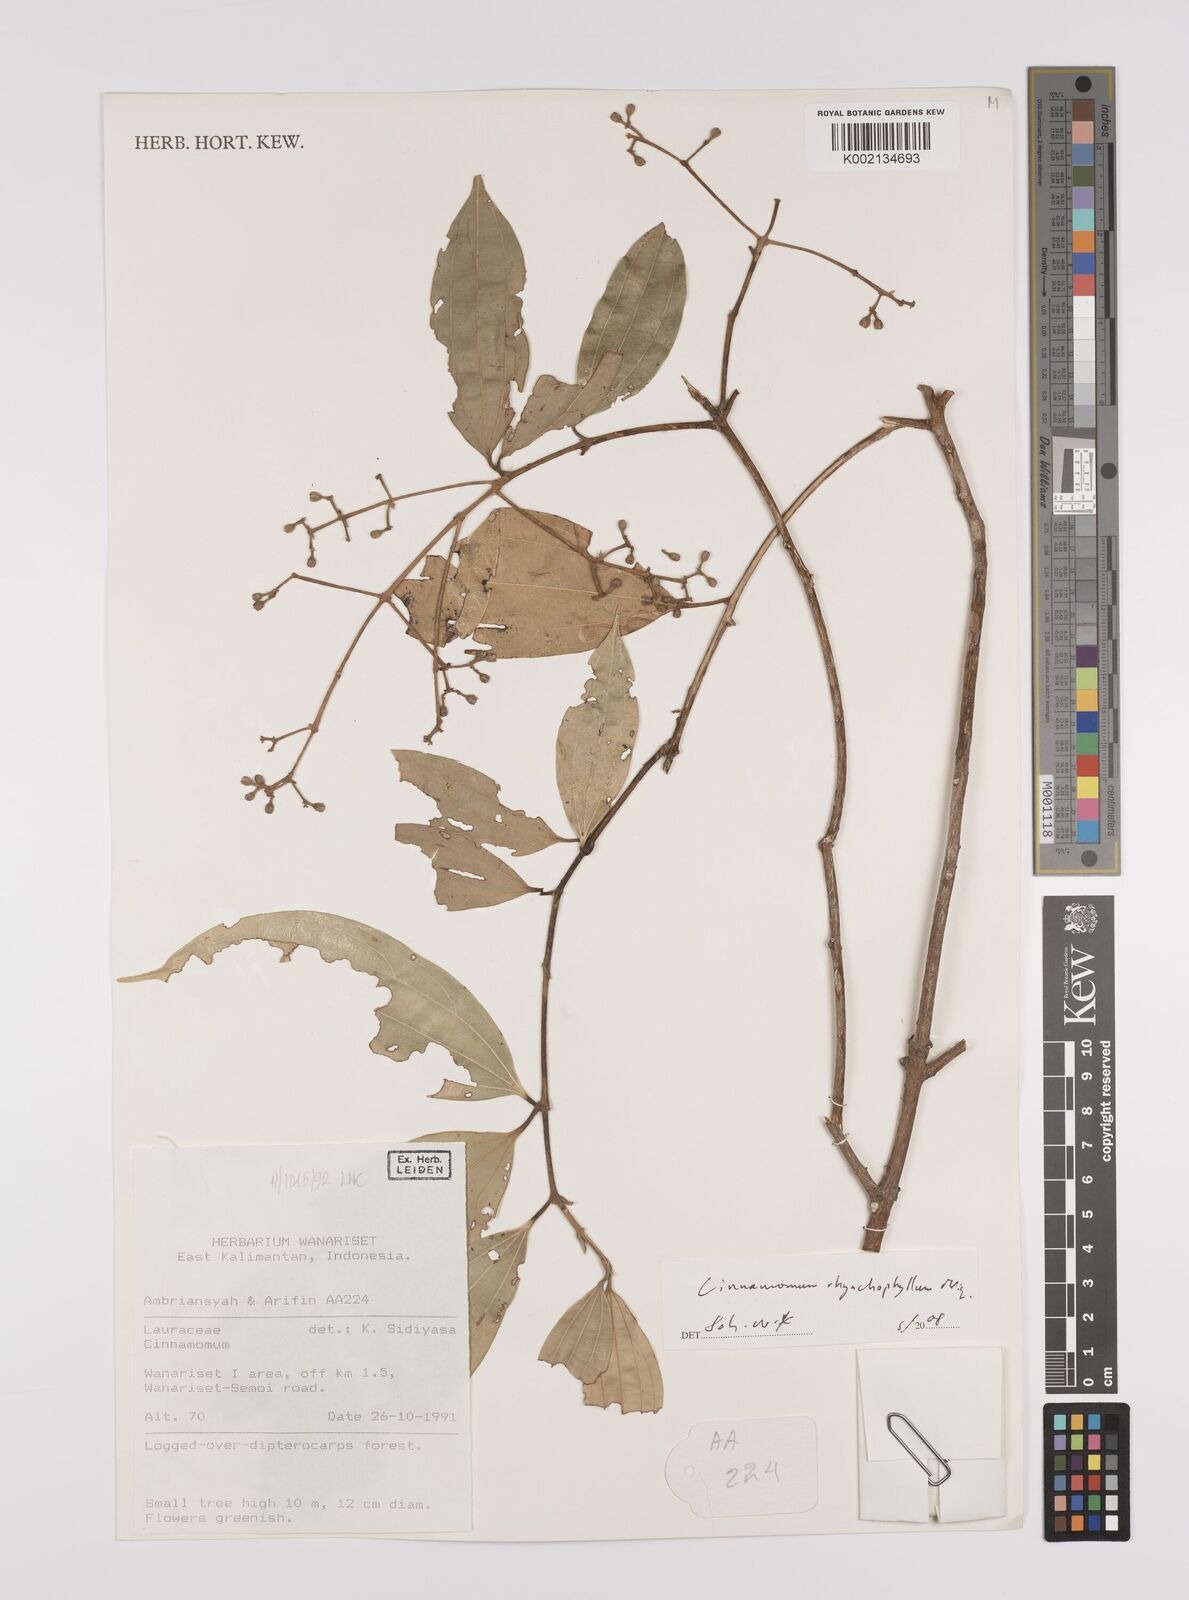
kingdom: Plantae
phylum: Tracheophyta
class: Magnoliopsida
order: Laurales
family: Lauraceae
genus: Cinnamomum
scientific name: Cinnamomum rhynchophyllum
